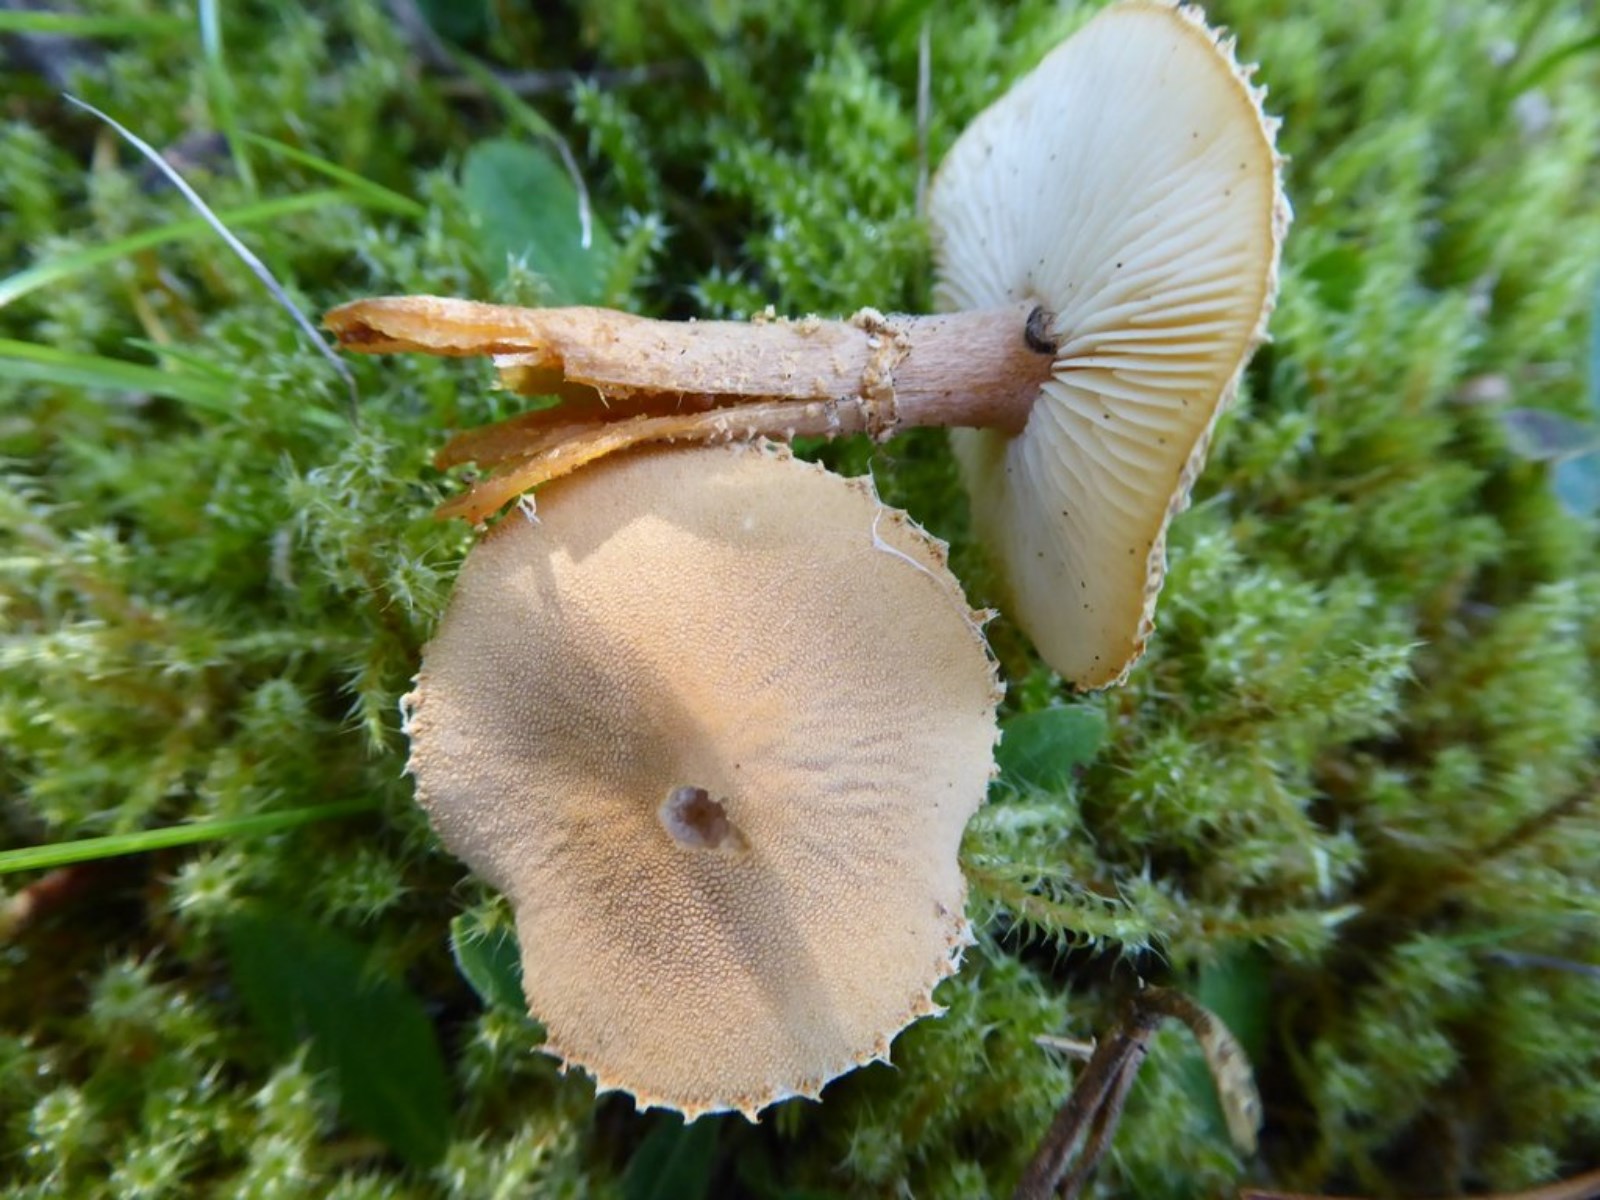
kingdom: Fungi
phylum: Basidiomycota
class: Agaricomycetes
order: Agaricales
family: Tricholomataceae
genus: Cystoderma
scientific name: Cystoderma amianthinum
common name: okkergul grynhat
